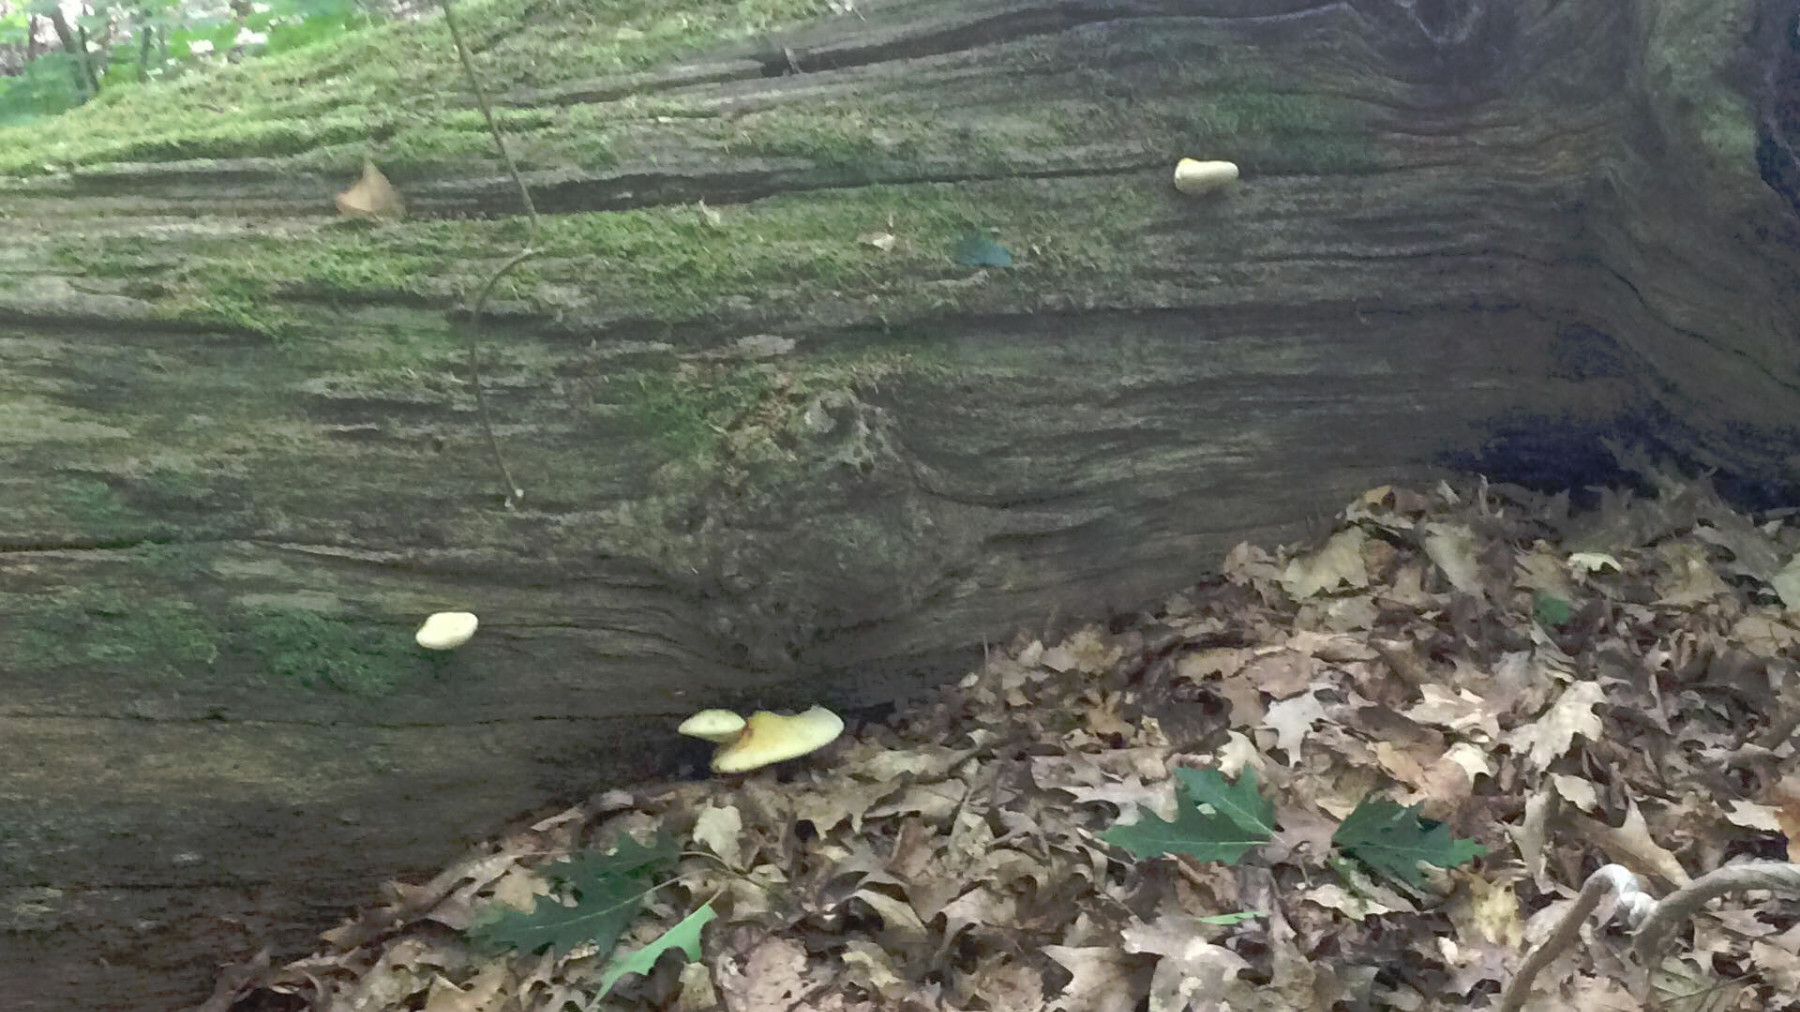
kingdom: Fungi
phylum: Basidiomycota
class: Agaricomycetes
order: Polyporales
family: Fomitopsidaceae
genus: Buglossoporus
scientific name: Buglossoporus quercinus
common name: egetunge
